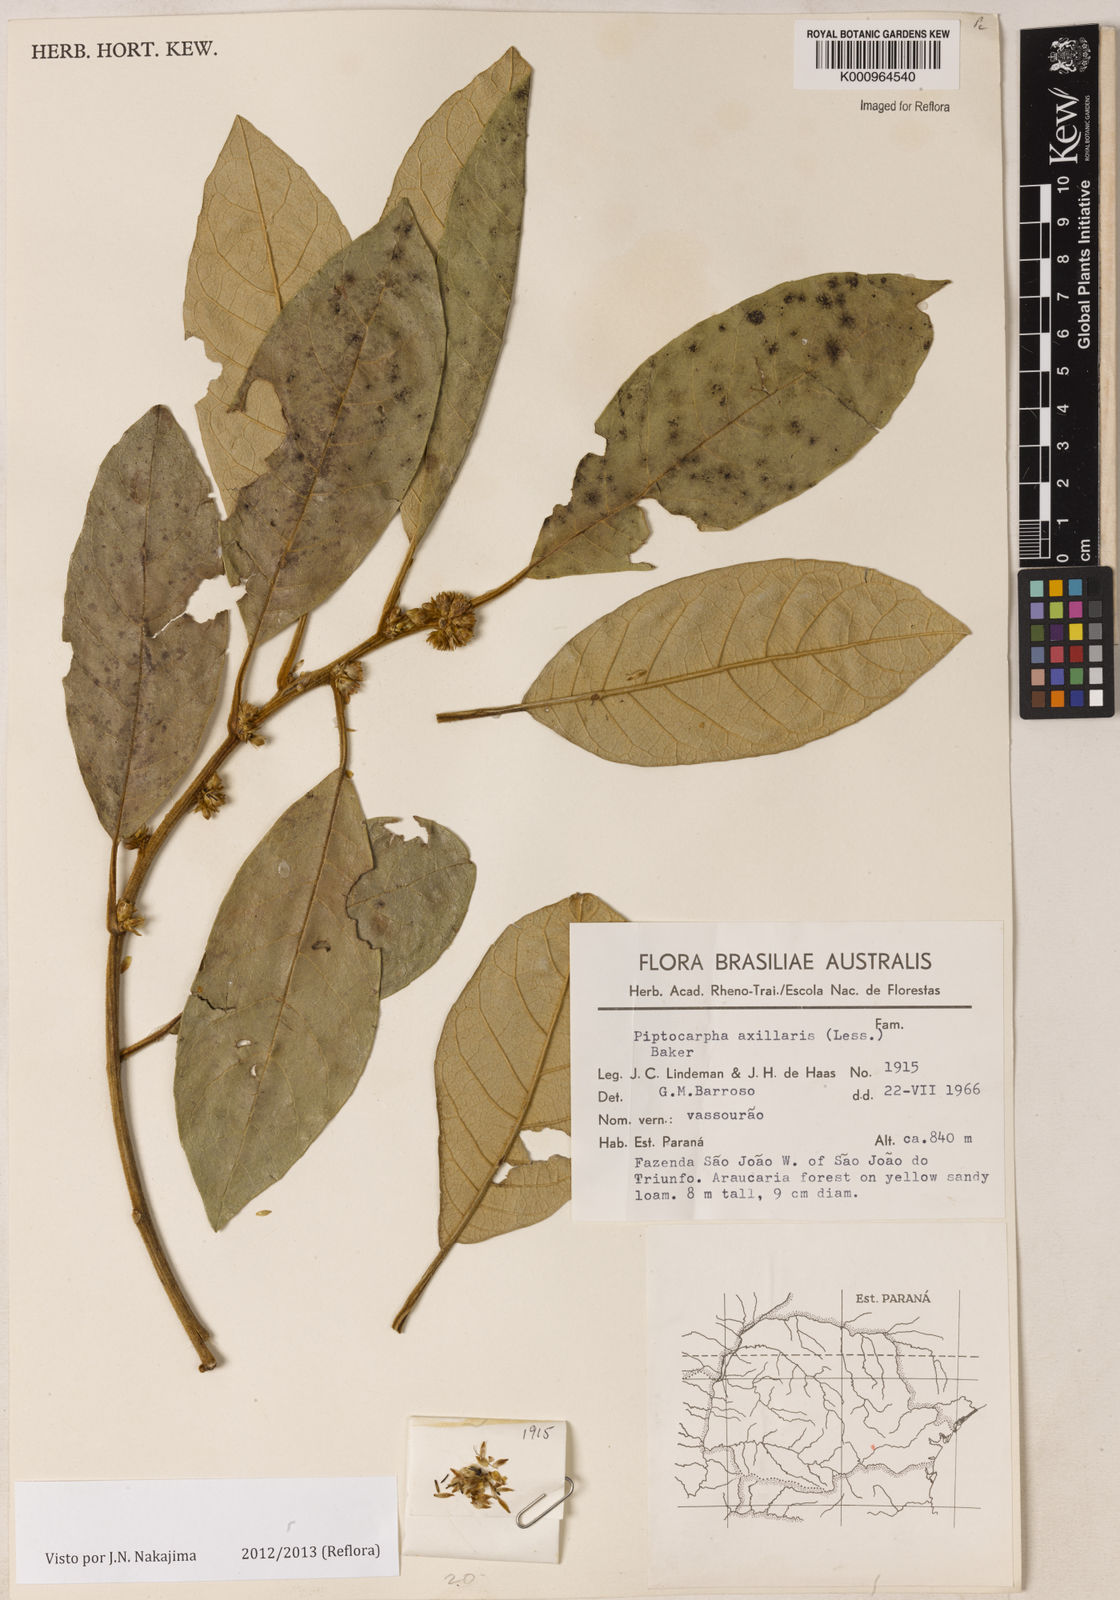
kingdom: Plantae
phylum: Tracheophyta
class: Magnoliopsida
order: Asterales
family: Asteraceae
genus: Piptocarpha
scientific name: Piptocarpha axillaris
